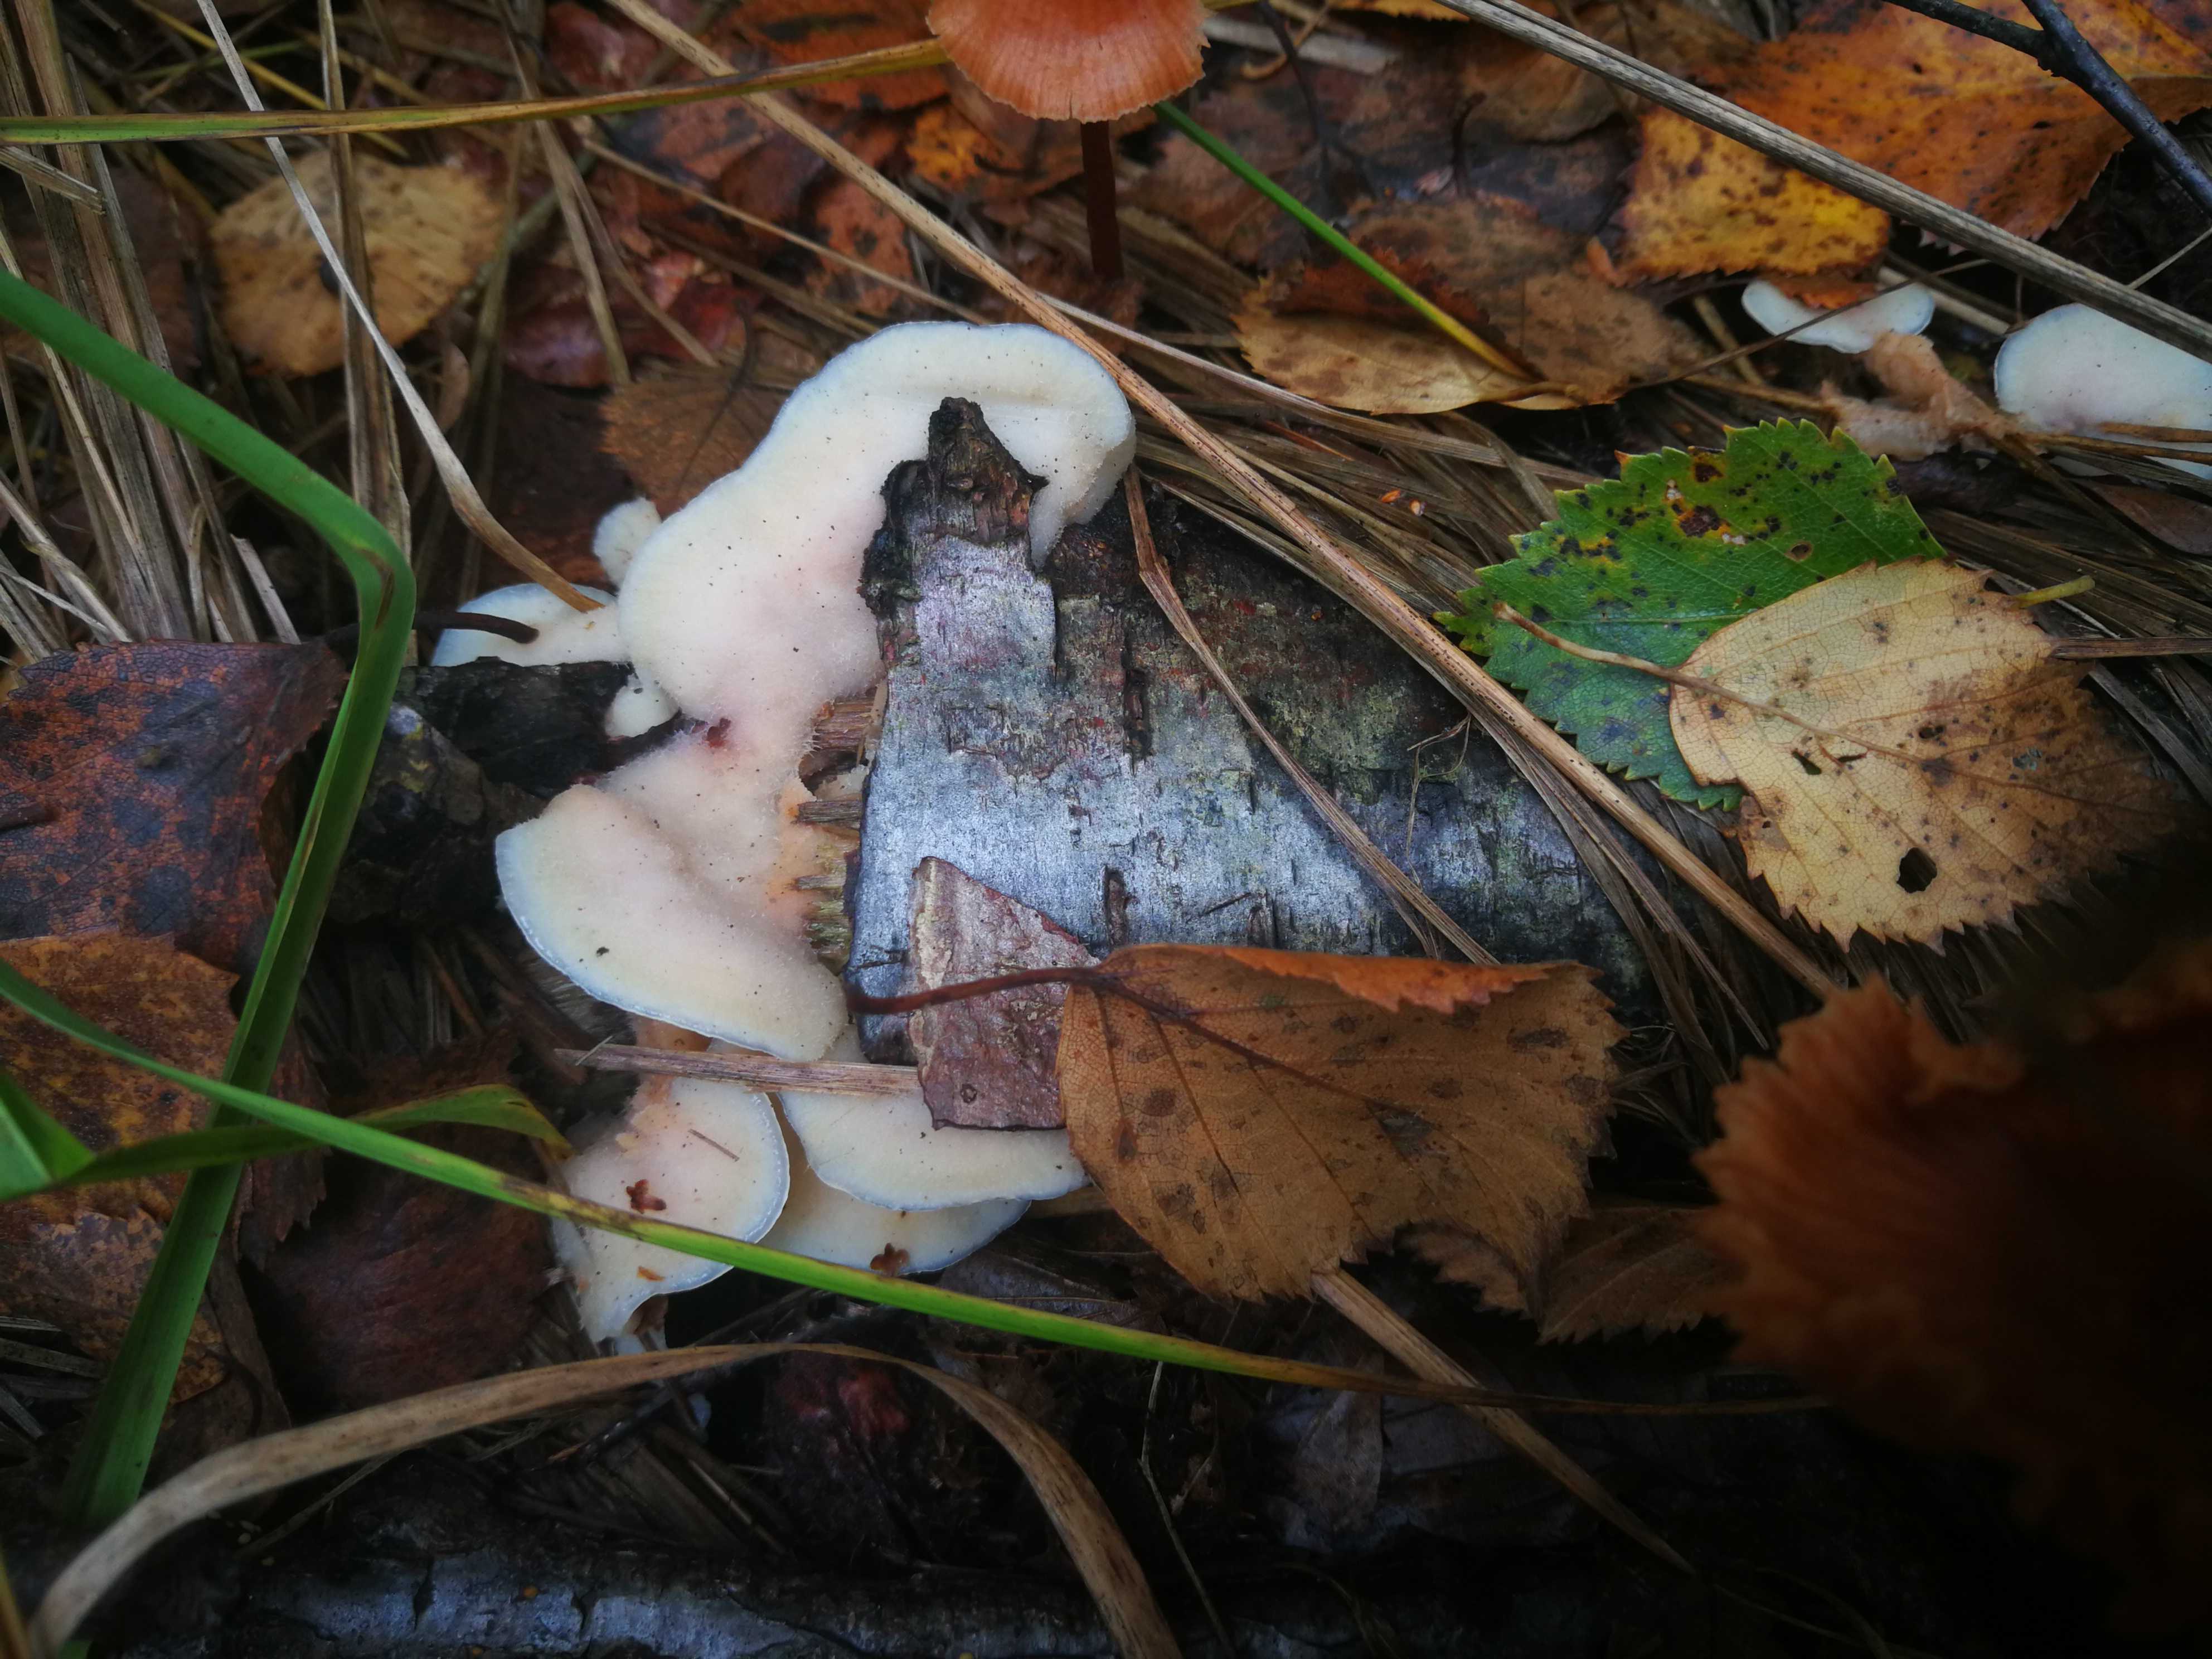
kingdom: Fungi
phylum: Basidiomycota
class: Agaricomycetes
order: Polyporales
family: Meruliaceae
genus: Phlebia
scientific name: Phlebia tremellosa
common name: bævrende åresvamp
